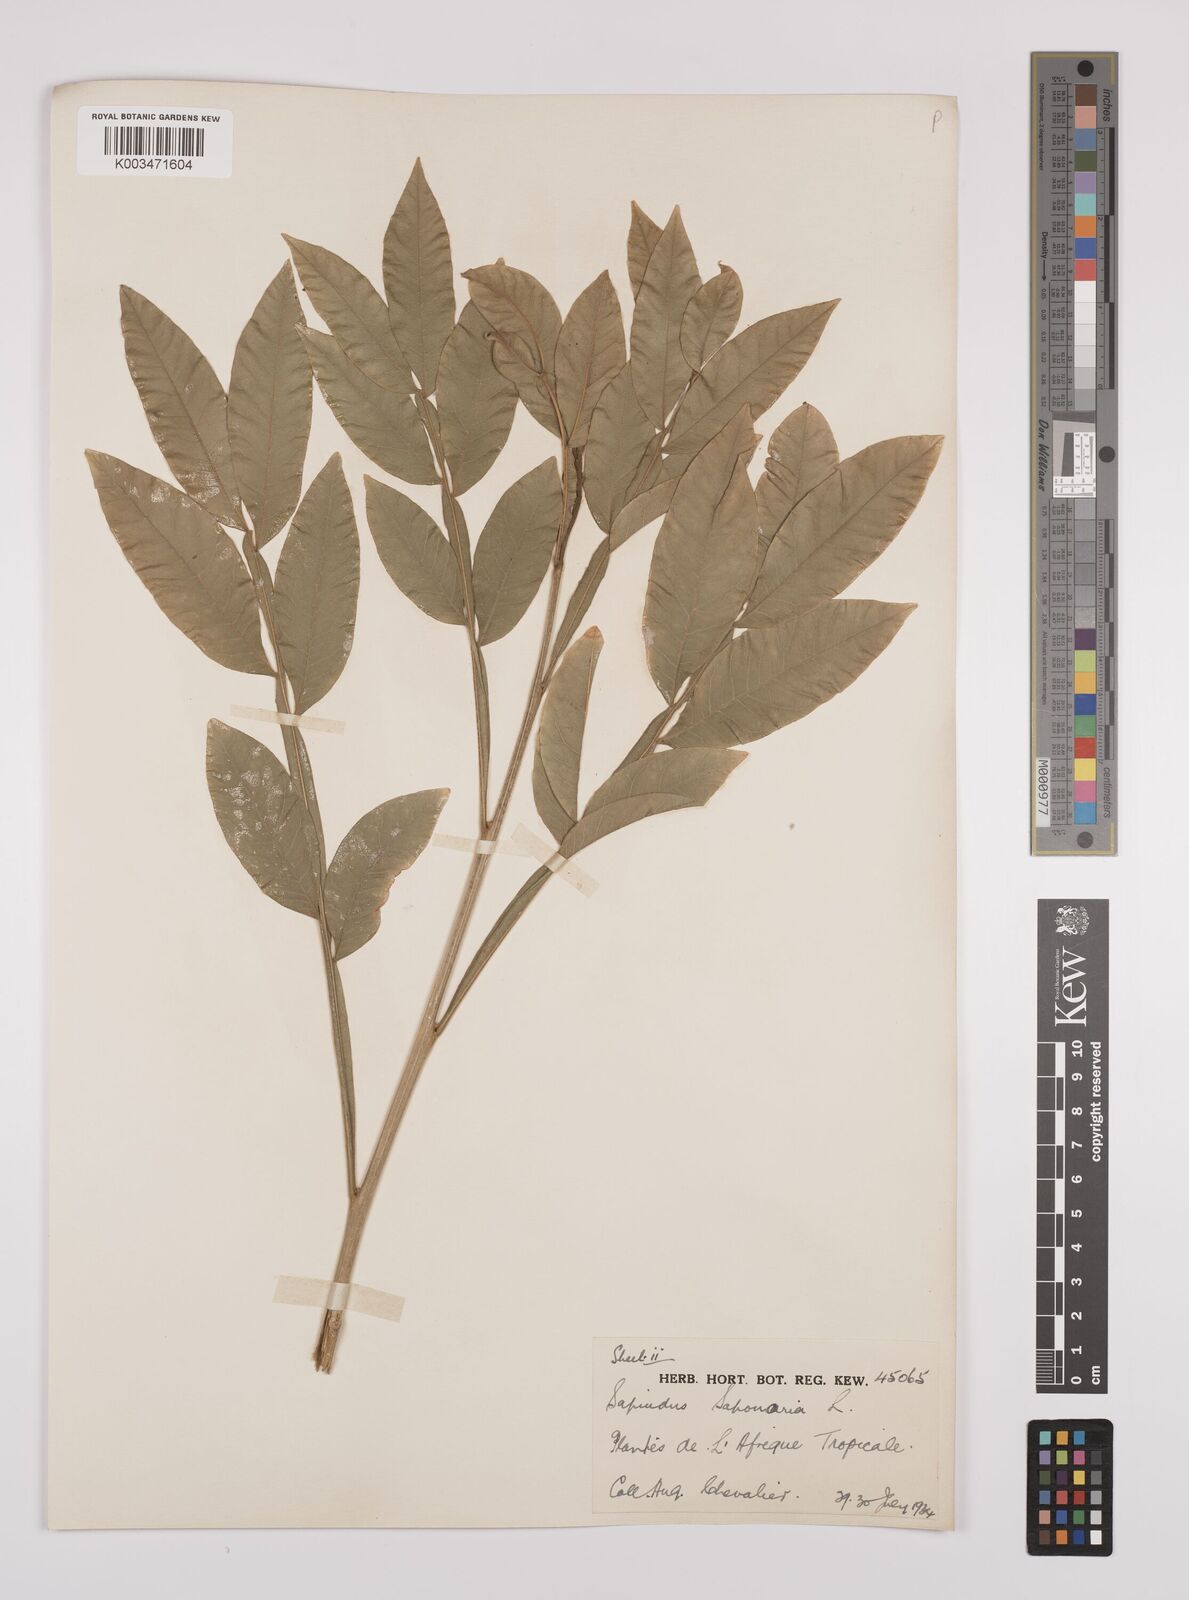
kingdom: Plantae
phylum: Tracheophyta
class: Magnoliopsida
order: Sapindales
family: Sapindaceae
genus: Sapindus
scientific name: Sapindus
